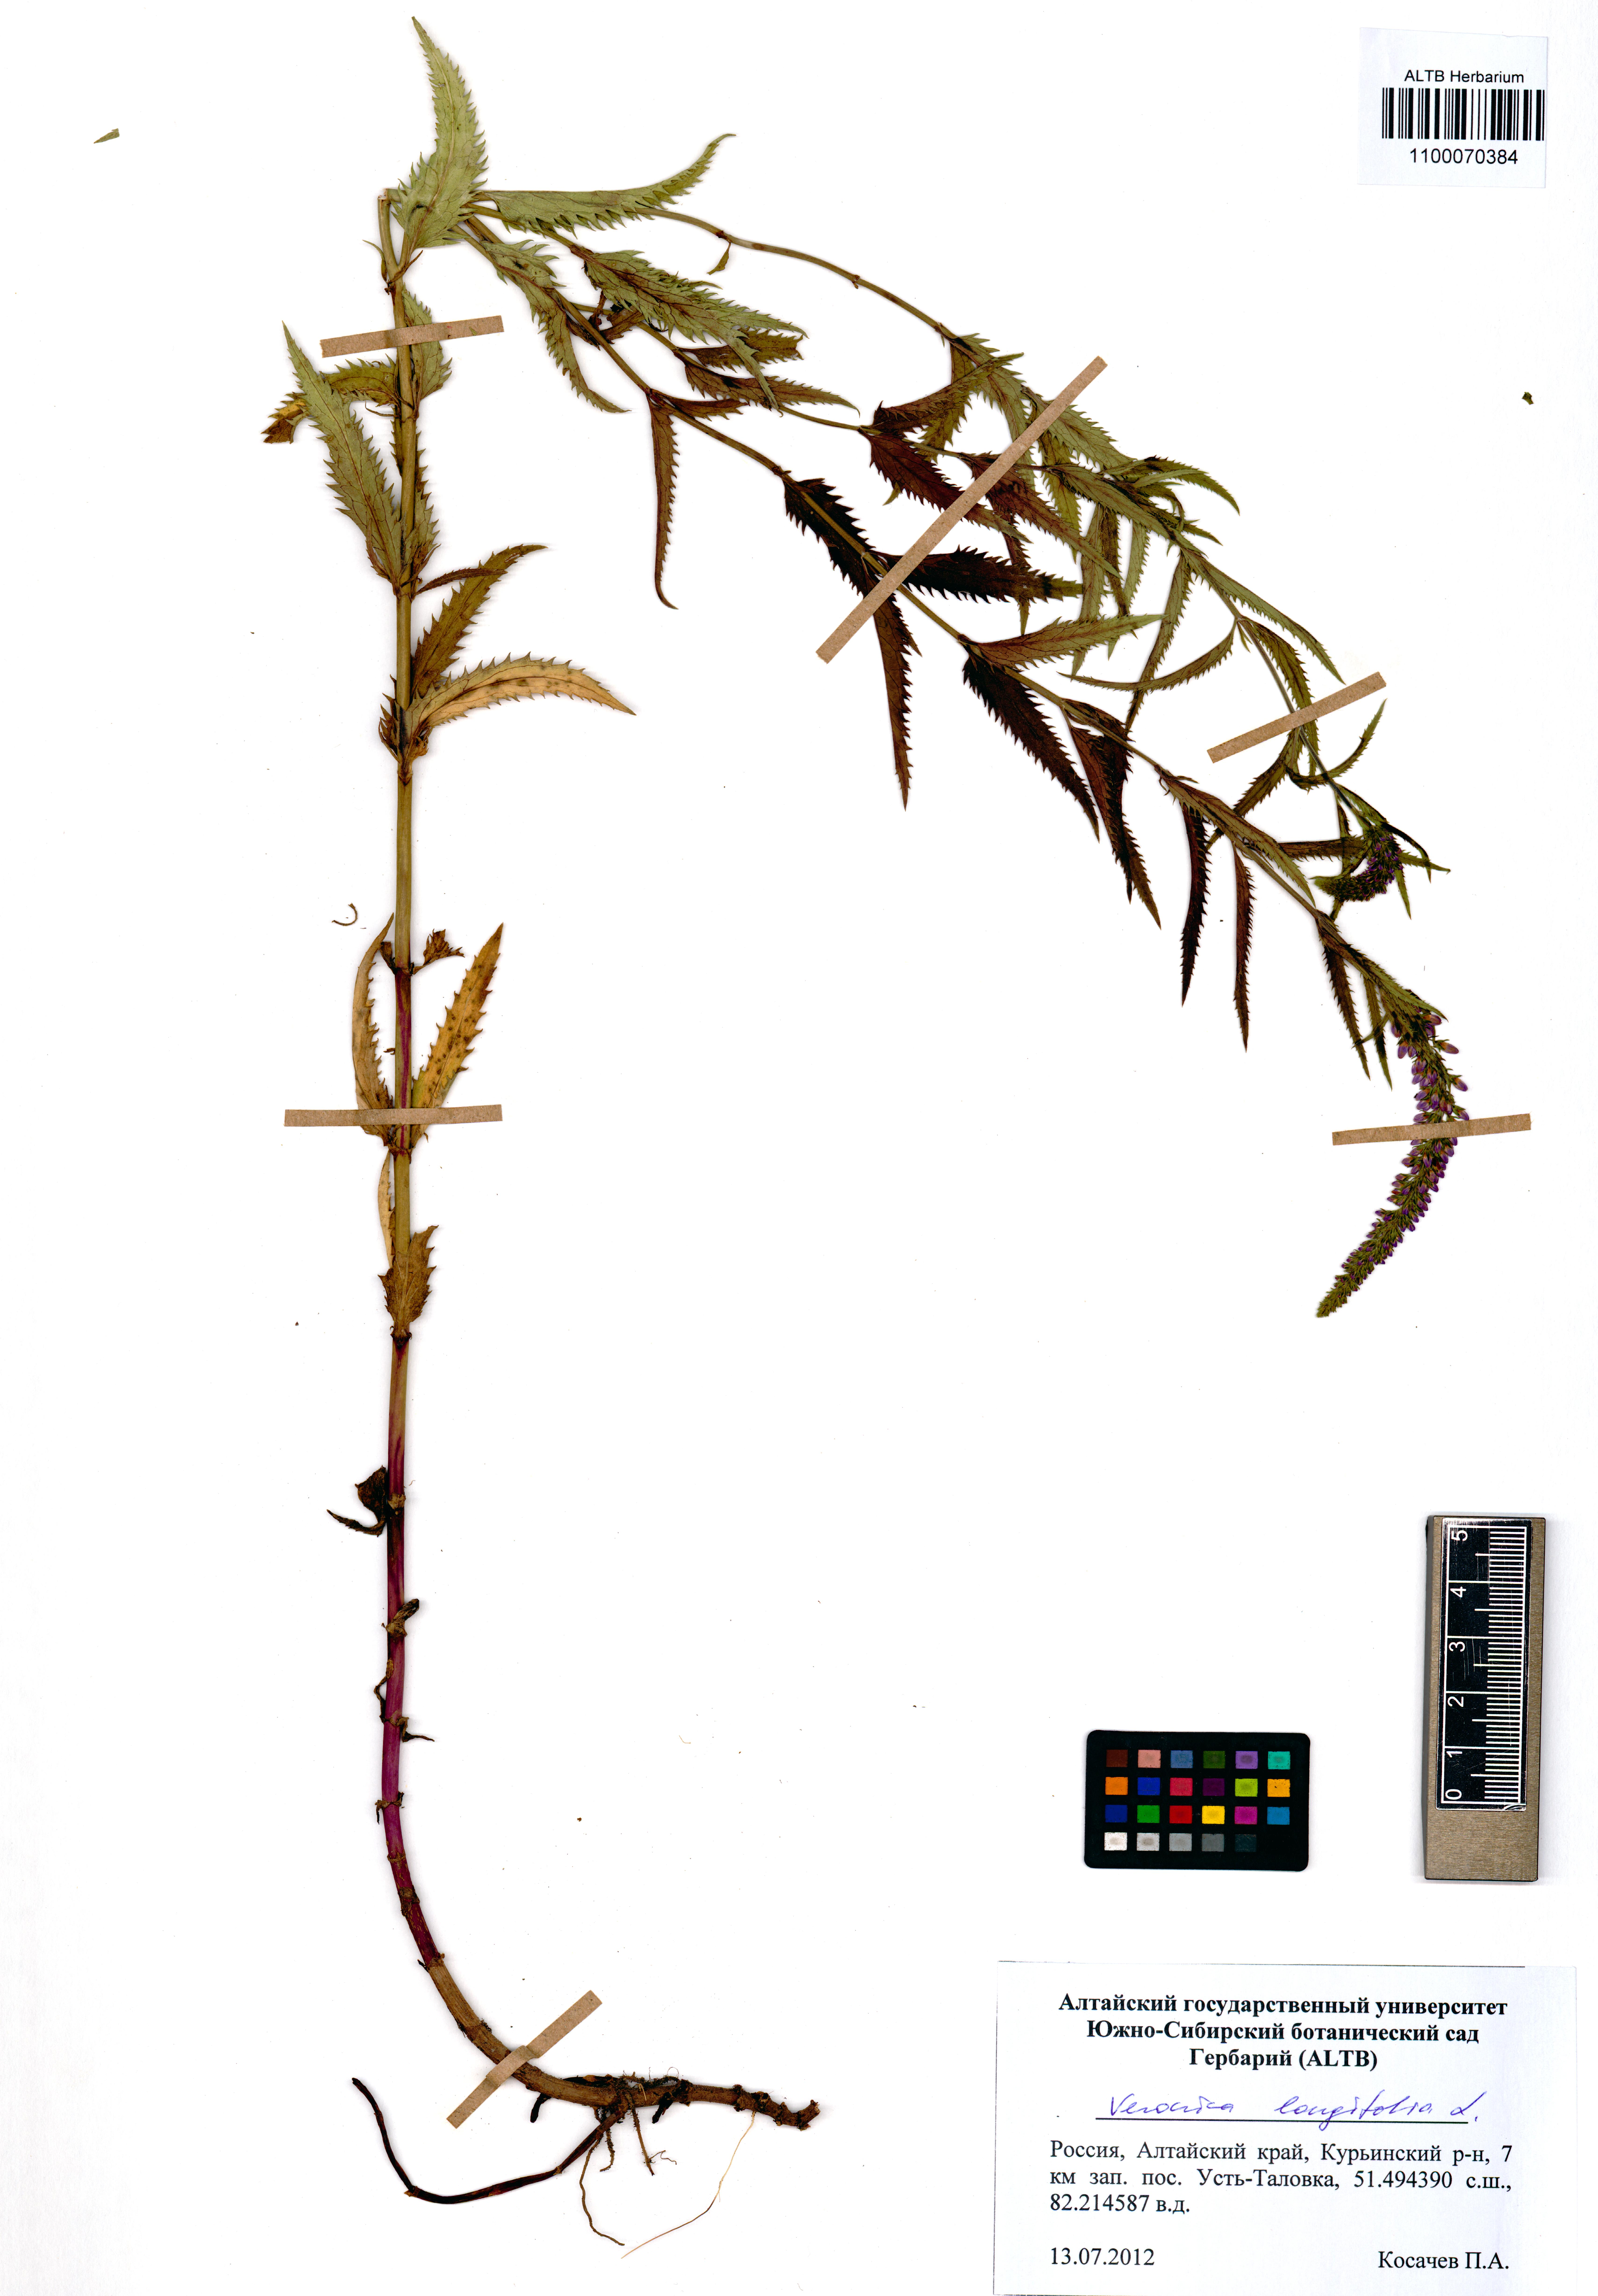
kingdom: Plantae
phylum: Tracheophyta
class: Magnoliopsida
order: Lamiales
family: Plantaginaceae
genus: Veronica
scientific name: Veronica longifolia
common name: Garden speedwell
